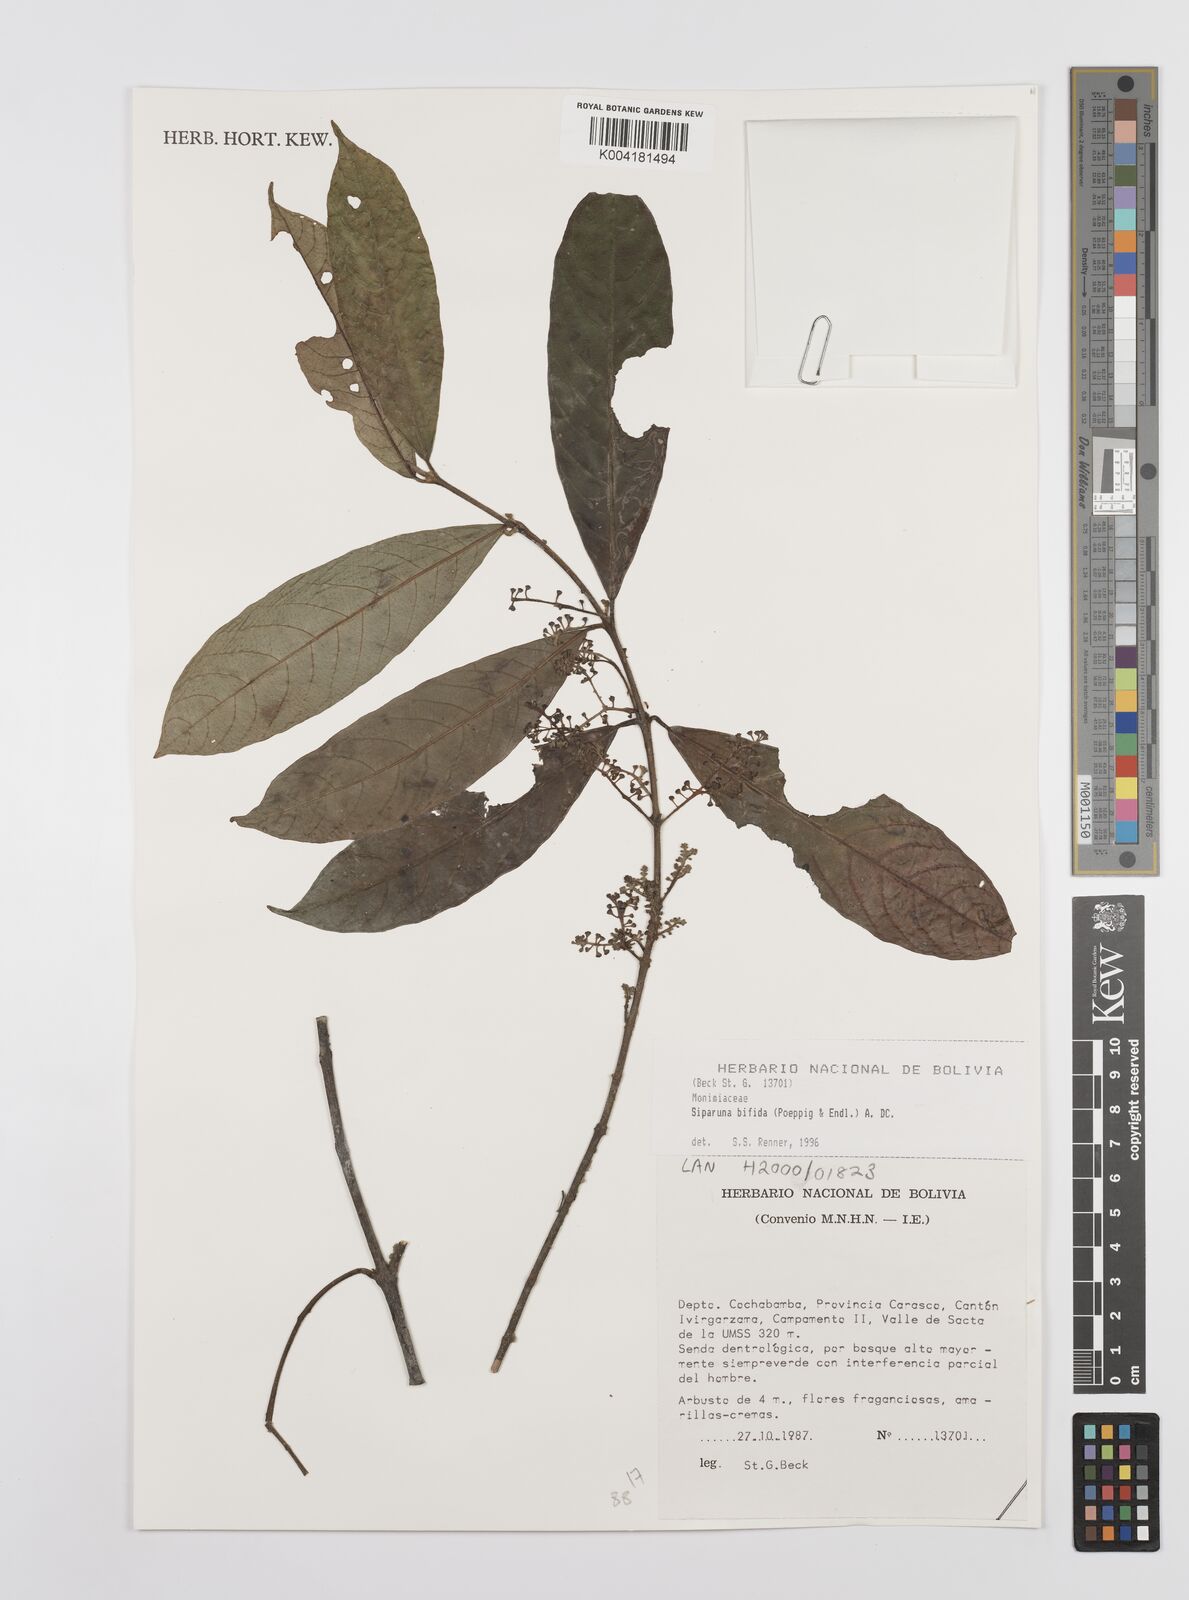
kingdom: Plantae
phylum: Tracheophyta
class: Magnoliopsida
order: Laurales
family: Siparunaceae
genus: Siparuna
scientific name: Siparuna bifida
